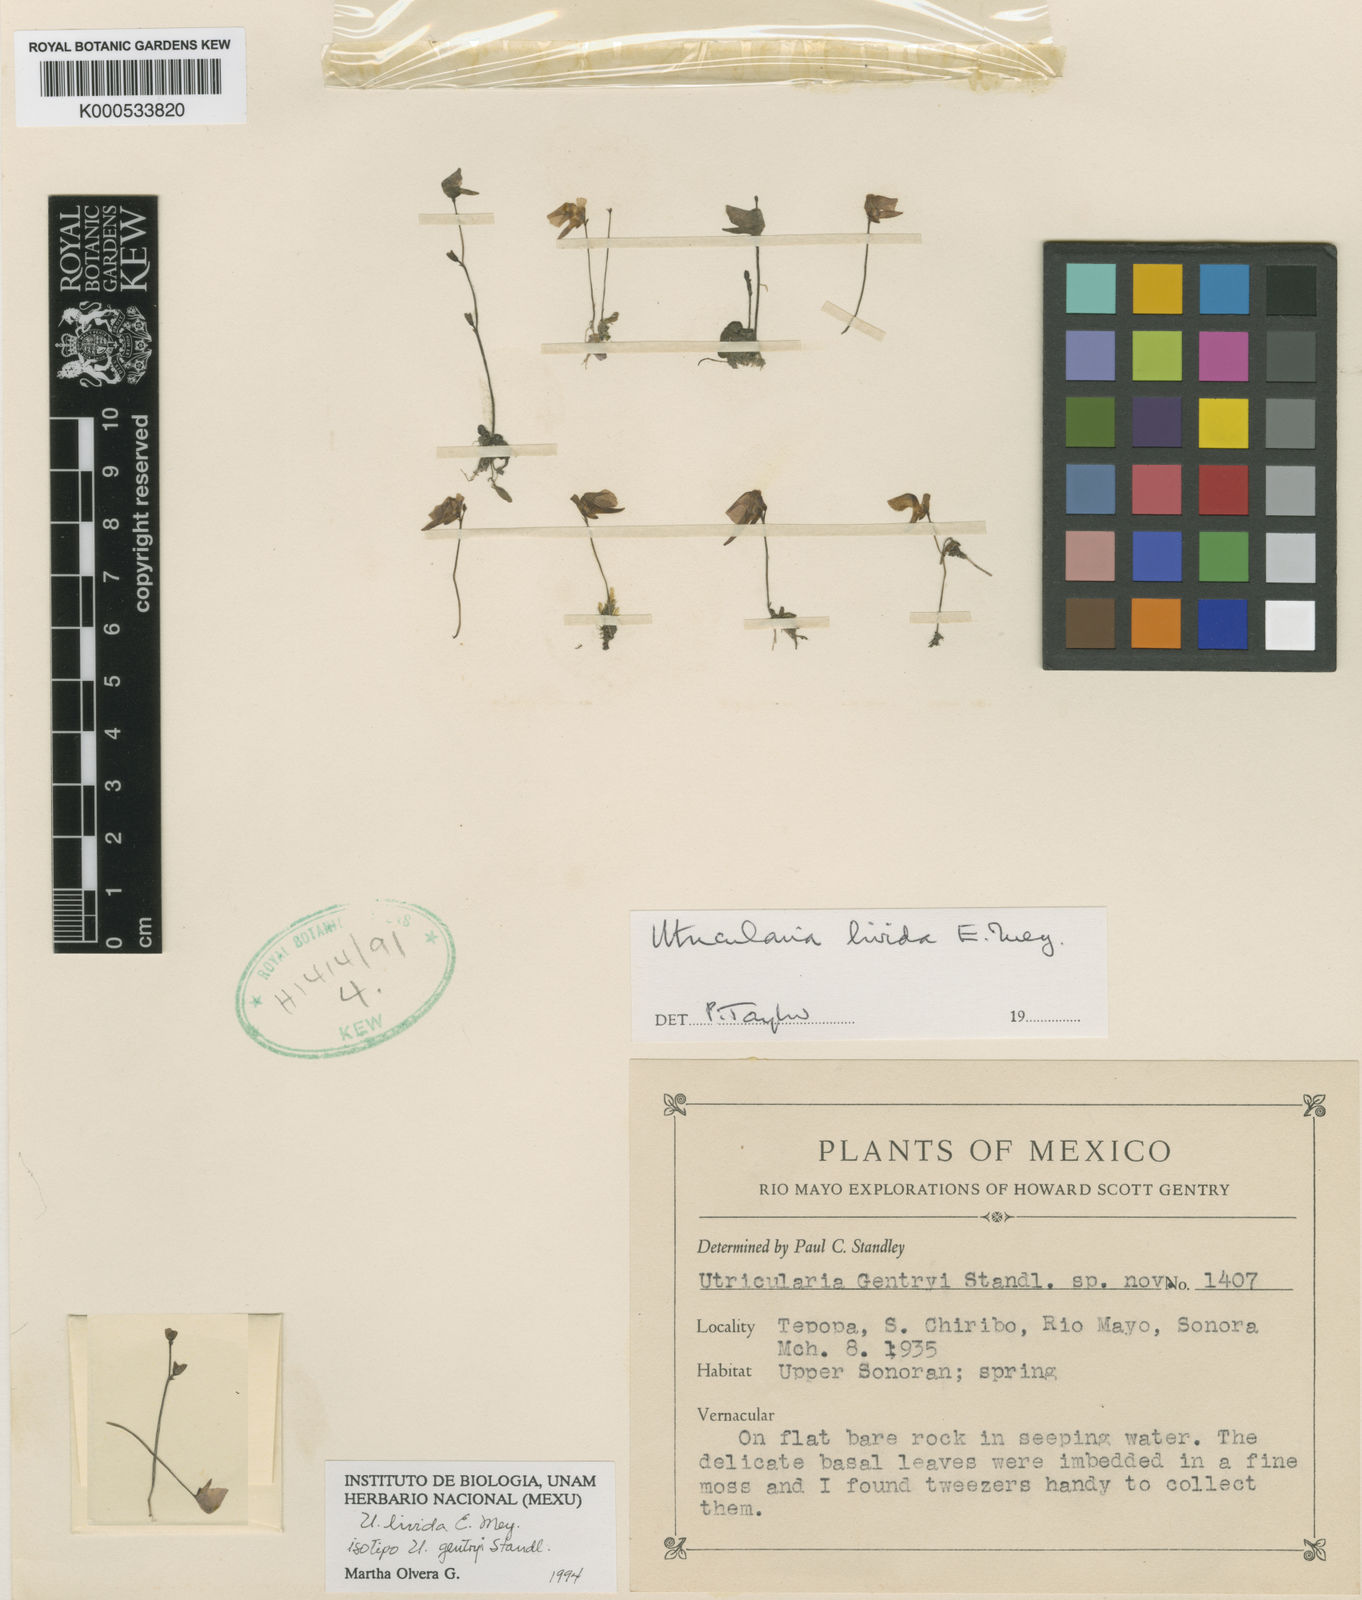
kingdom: Plantae
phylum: Tracheophyta
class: Magnoliopsida
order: Lamiales
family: Lentibulariaceae
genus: Utricularia
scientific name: Utricularia livida
